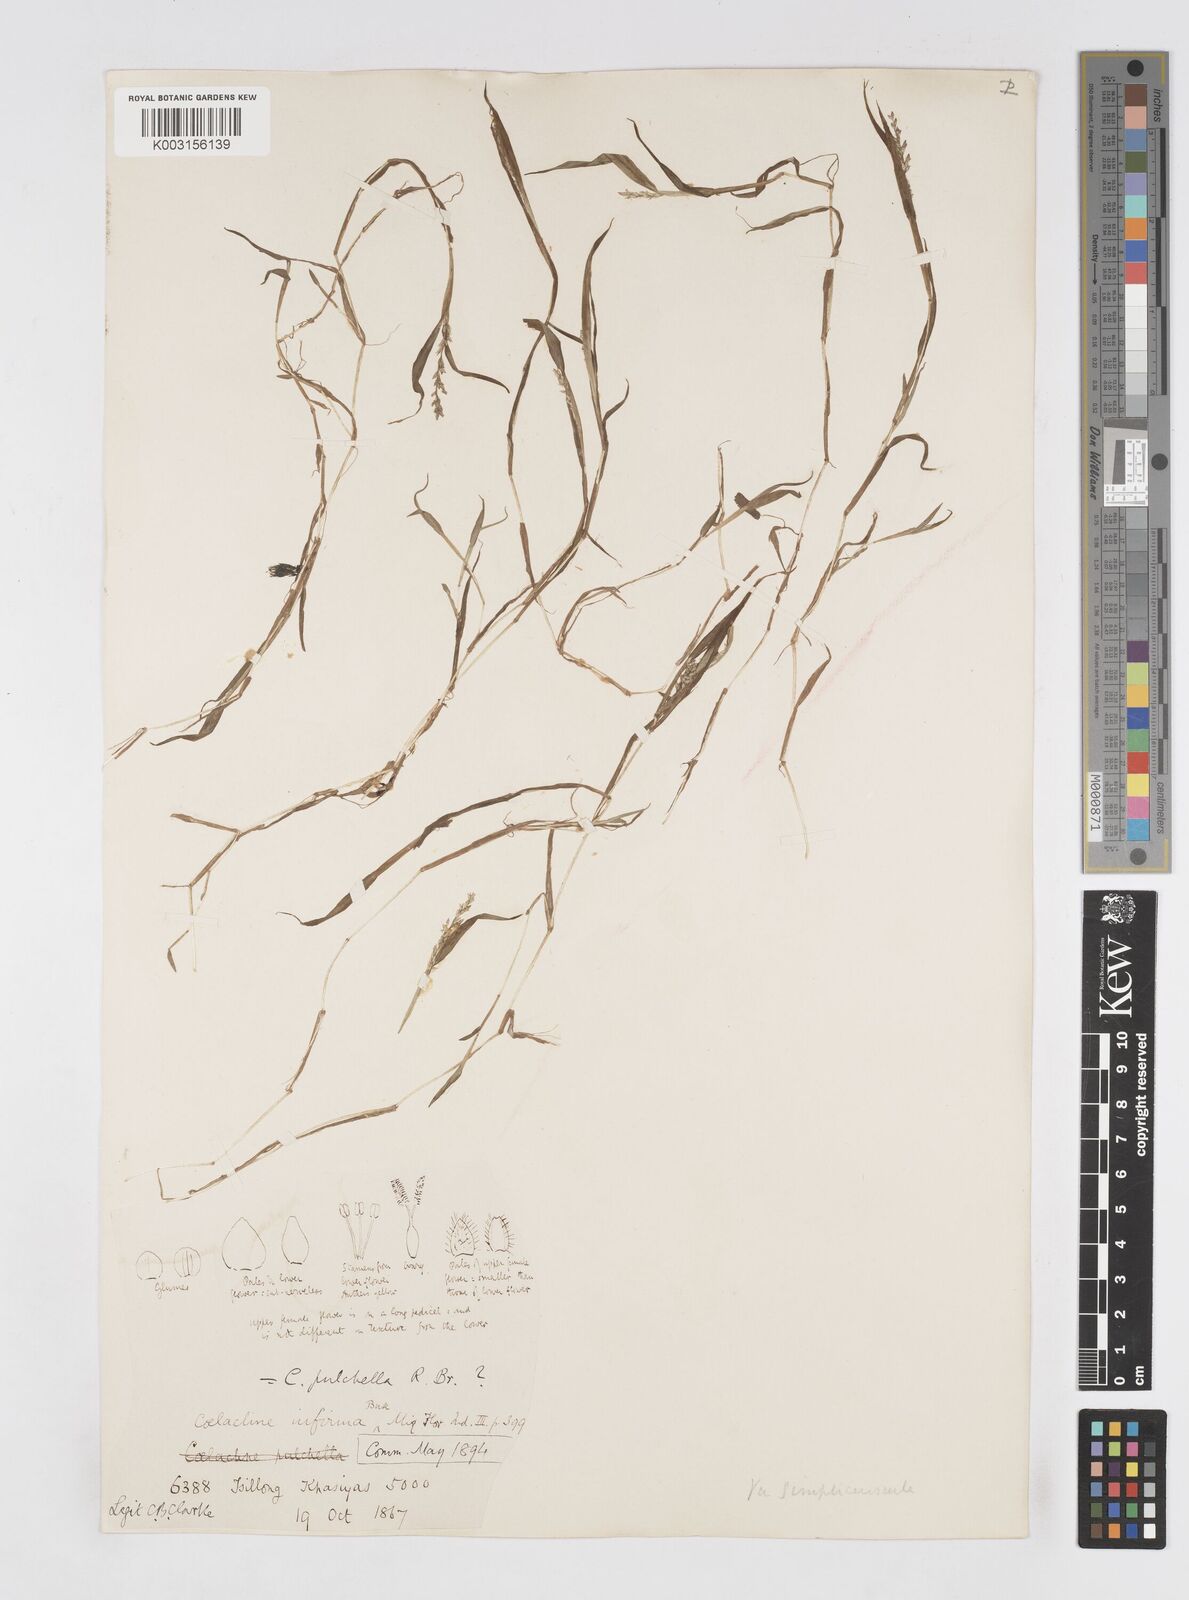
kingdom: Plantae
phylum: Tracheophyta
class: Liliopsida
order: Poales
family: Poaceae
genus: Coelachne
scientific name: Coelachne simpliciuscula
